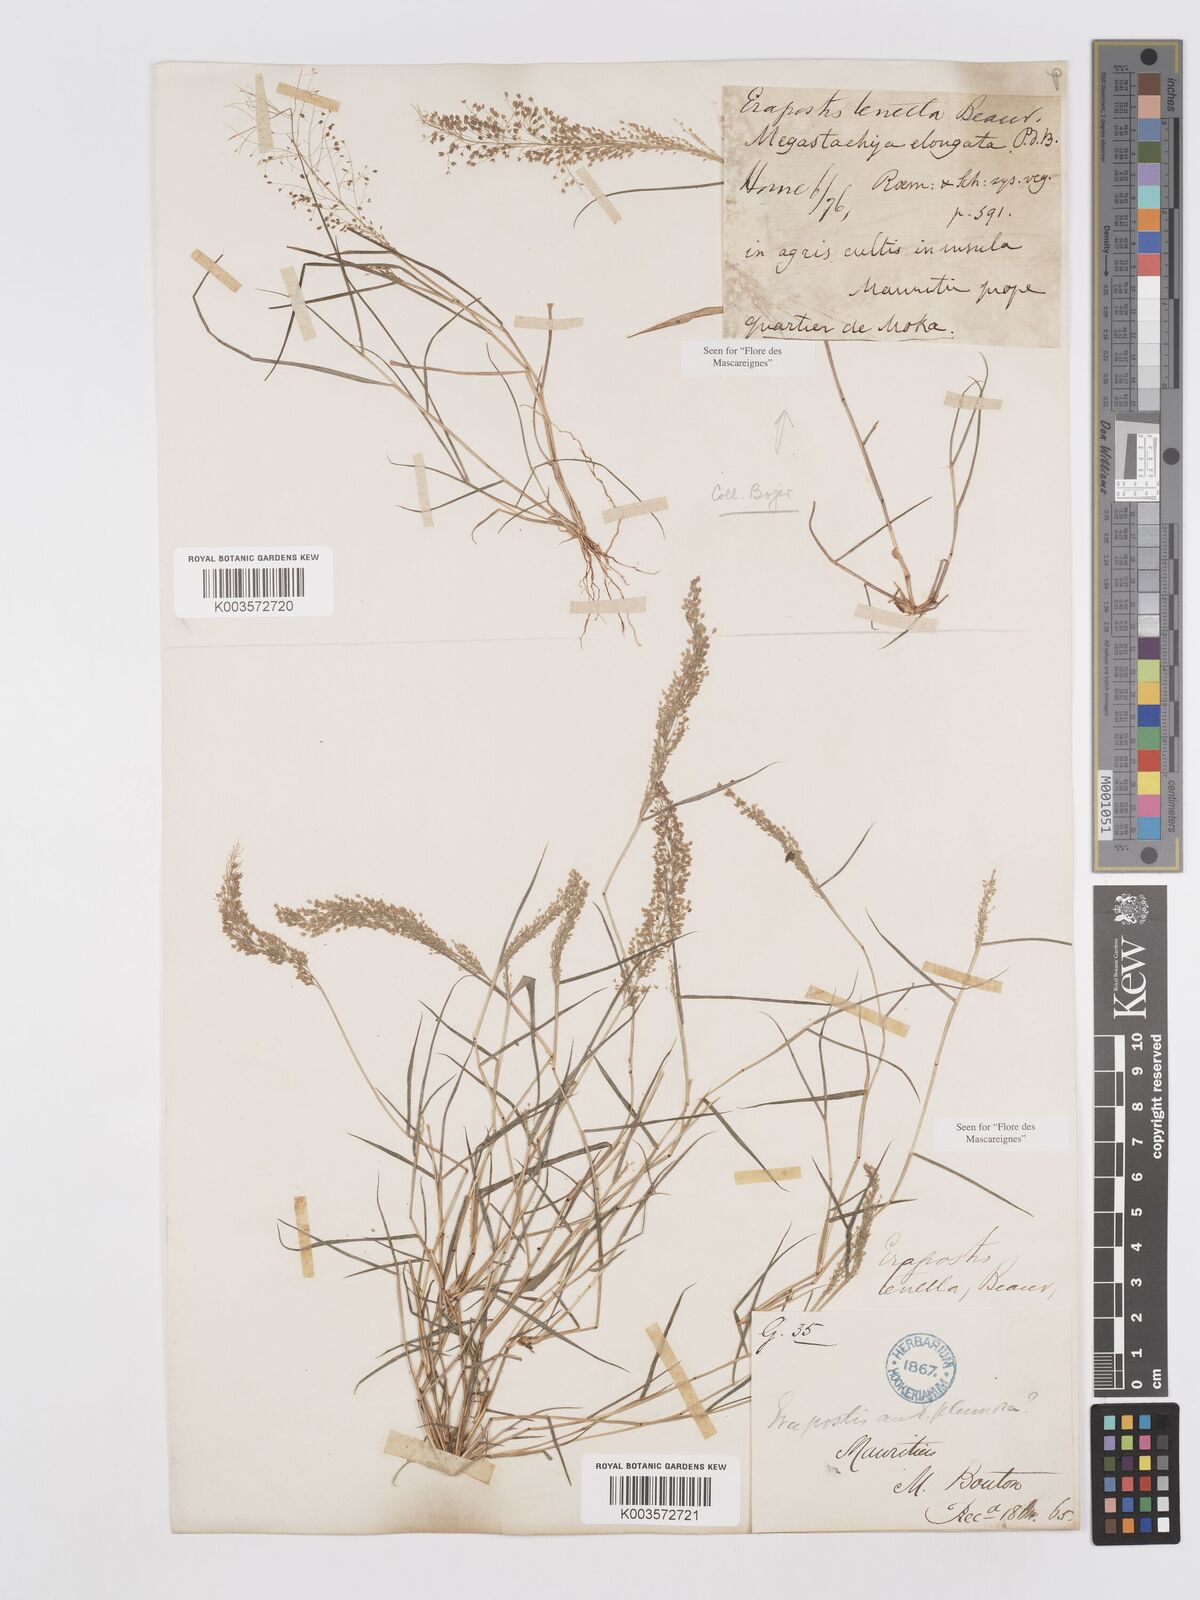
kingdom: Plantae
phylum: Tracheophyta
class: Liliopsida
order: Poales
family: Poaceae
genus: Eragrostis
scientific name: Eragrostis tenella
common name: Japanese lovegrass
